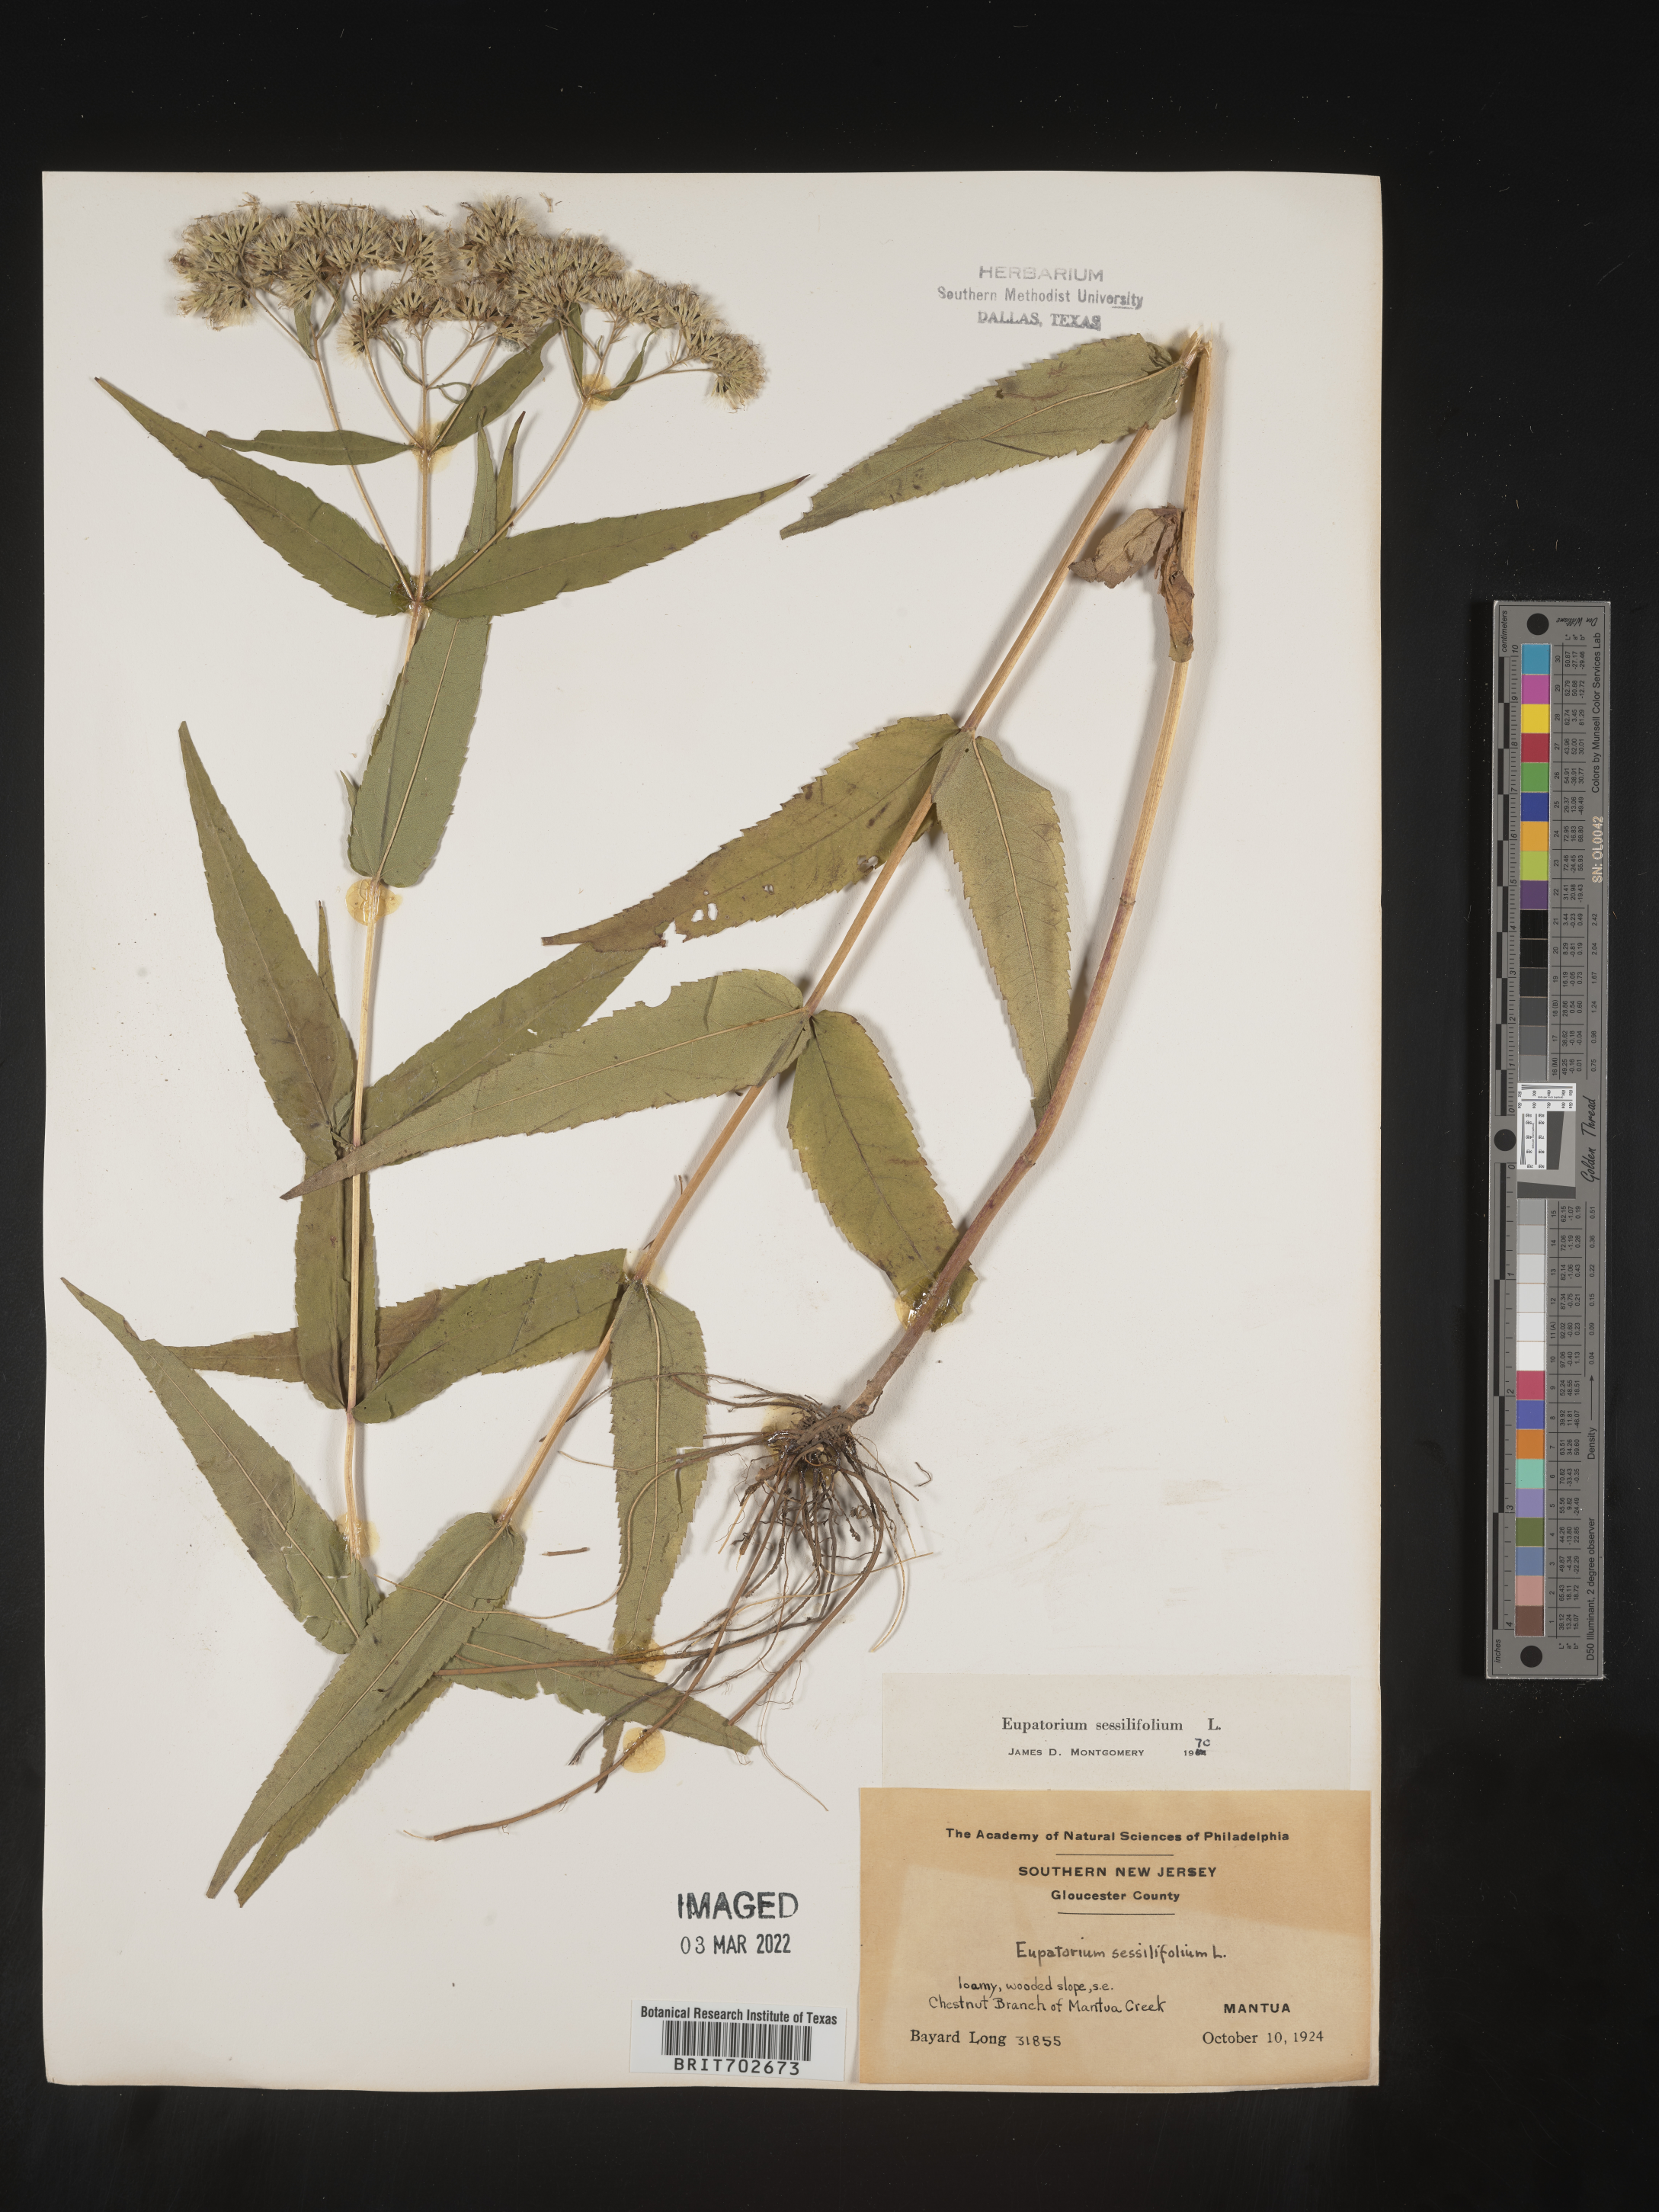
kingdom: Plantae
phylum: Tracheophyta
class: Magnoliopsida
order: Asterales
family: Asteraceae
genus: Eupatorium
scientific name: Eupatorium sessilifolium
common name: Upland boneset
